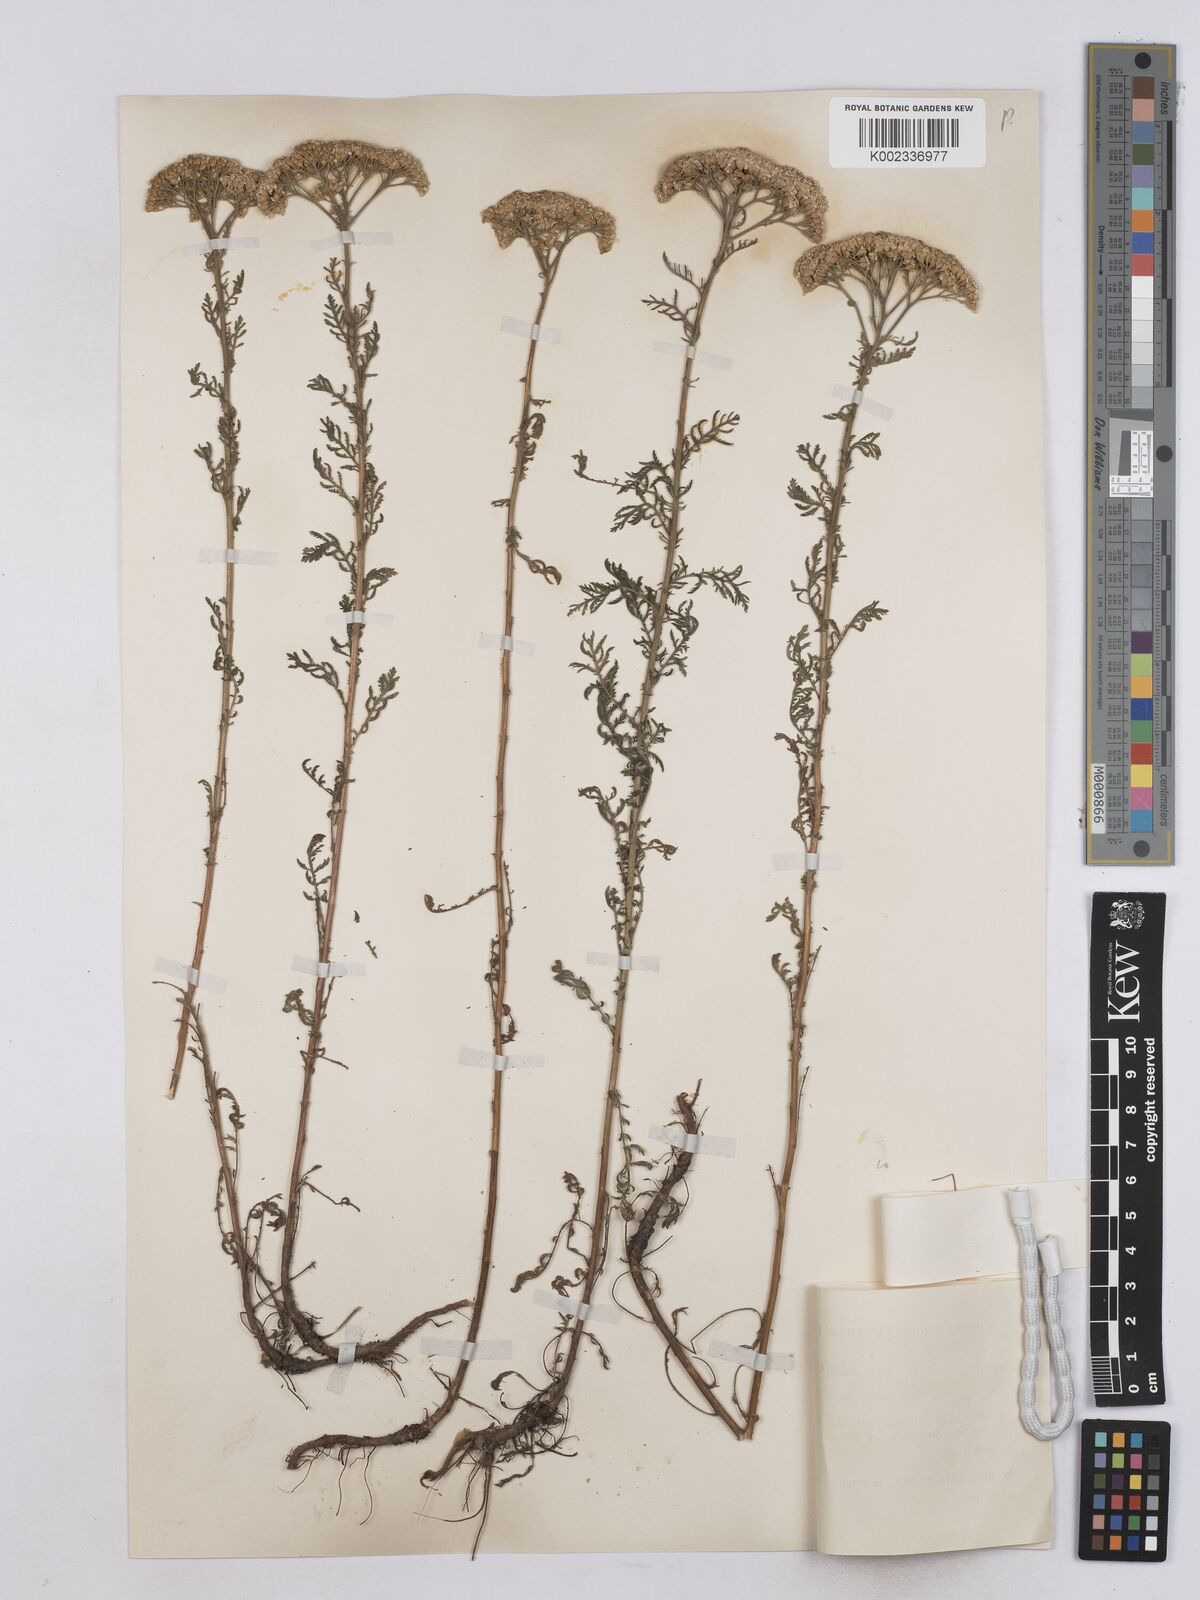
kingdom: Plantae
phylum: Tracheophyta
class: Magnoliopsida
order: Asterales
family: Asteraceae
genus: Achillea
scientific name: Achillea nobilis
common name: Noble yarrow
